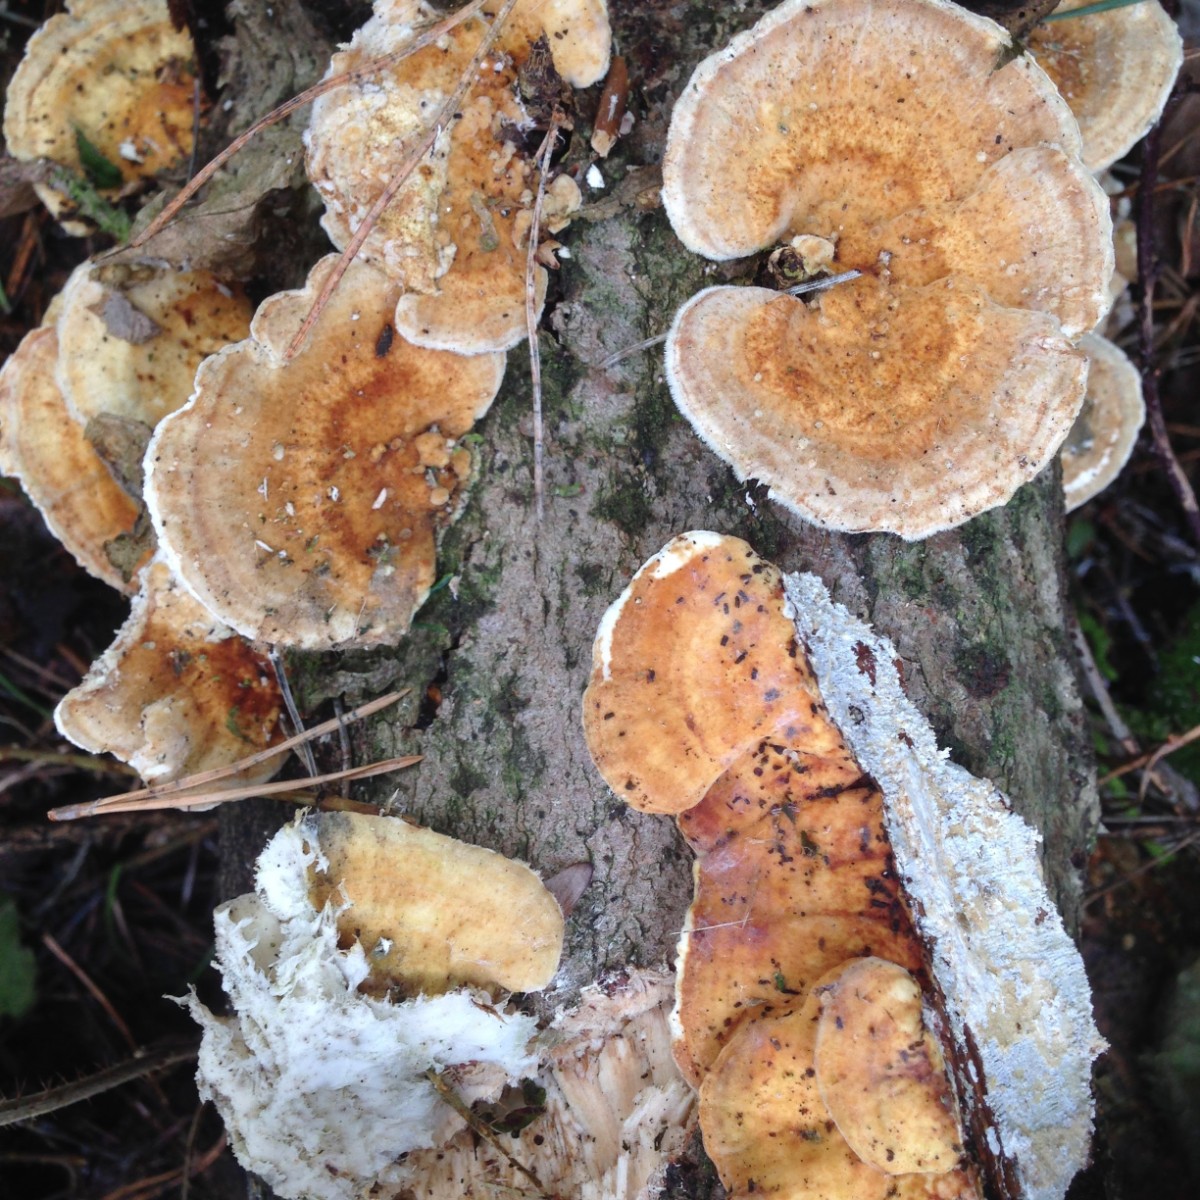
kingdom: Fungi
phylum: Basidiomycota
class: Agaricomycetes
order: Polyporales
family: Polyporaceae
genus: Trametes
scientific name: Trametes ochracea
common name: bæltet læderporesvamp
